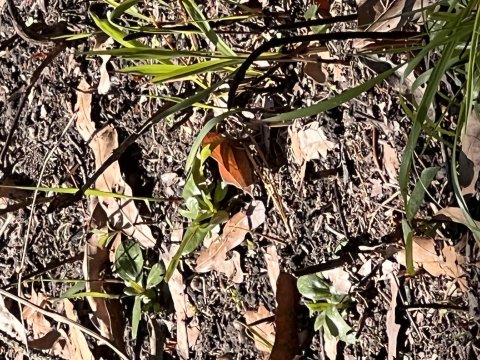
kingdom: Animalia
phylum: Arthropoda
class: Insecta
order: Lepidoptera
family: Nymphalidae
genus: Anaea
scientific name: Anaea andria
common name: Goatweed Leafwing
